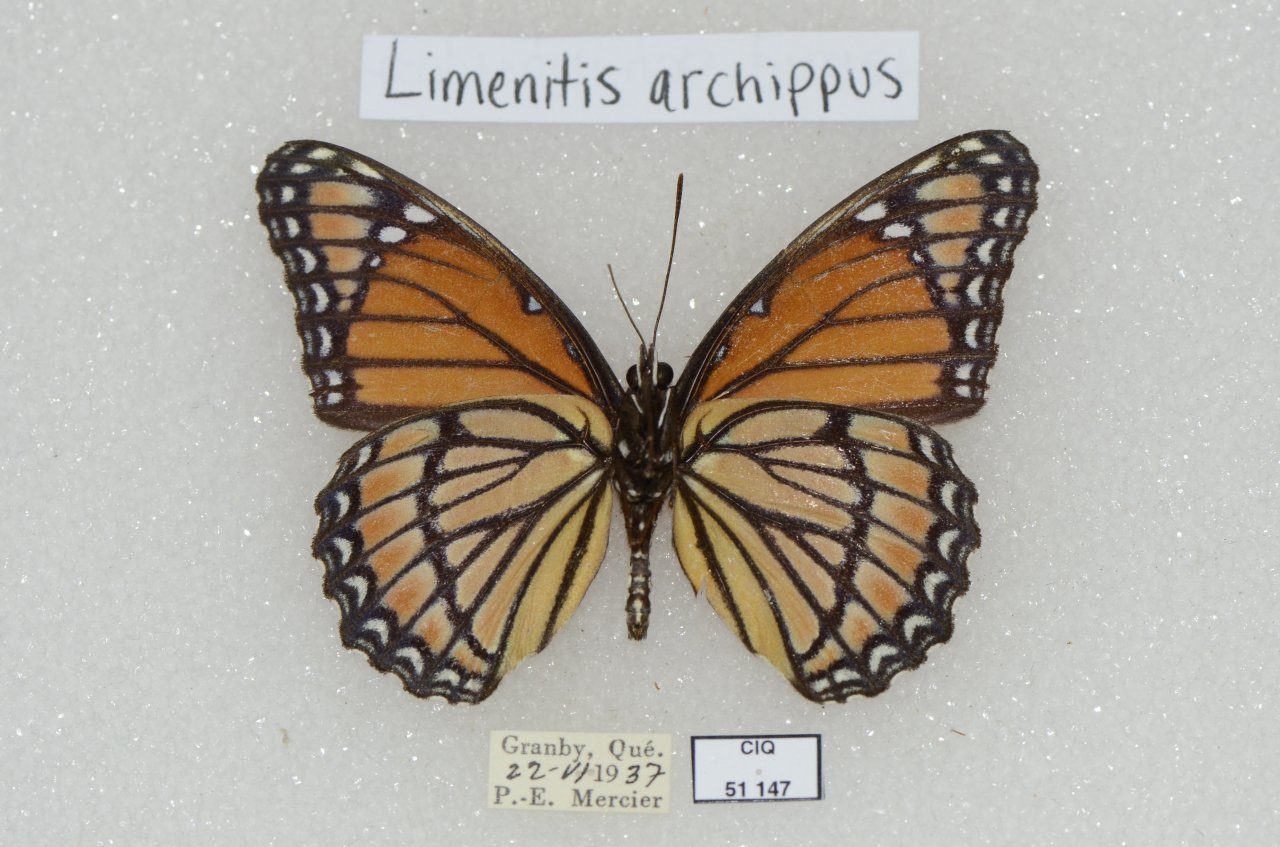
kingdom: Animalia
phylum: Arthropoda
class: Insecta
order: Lepidoptera
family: Nymphalidae
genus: Limenitis
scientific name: Limenitis archippus
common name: Viceroy
